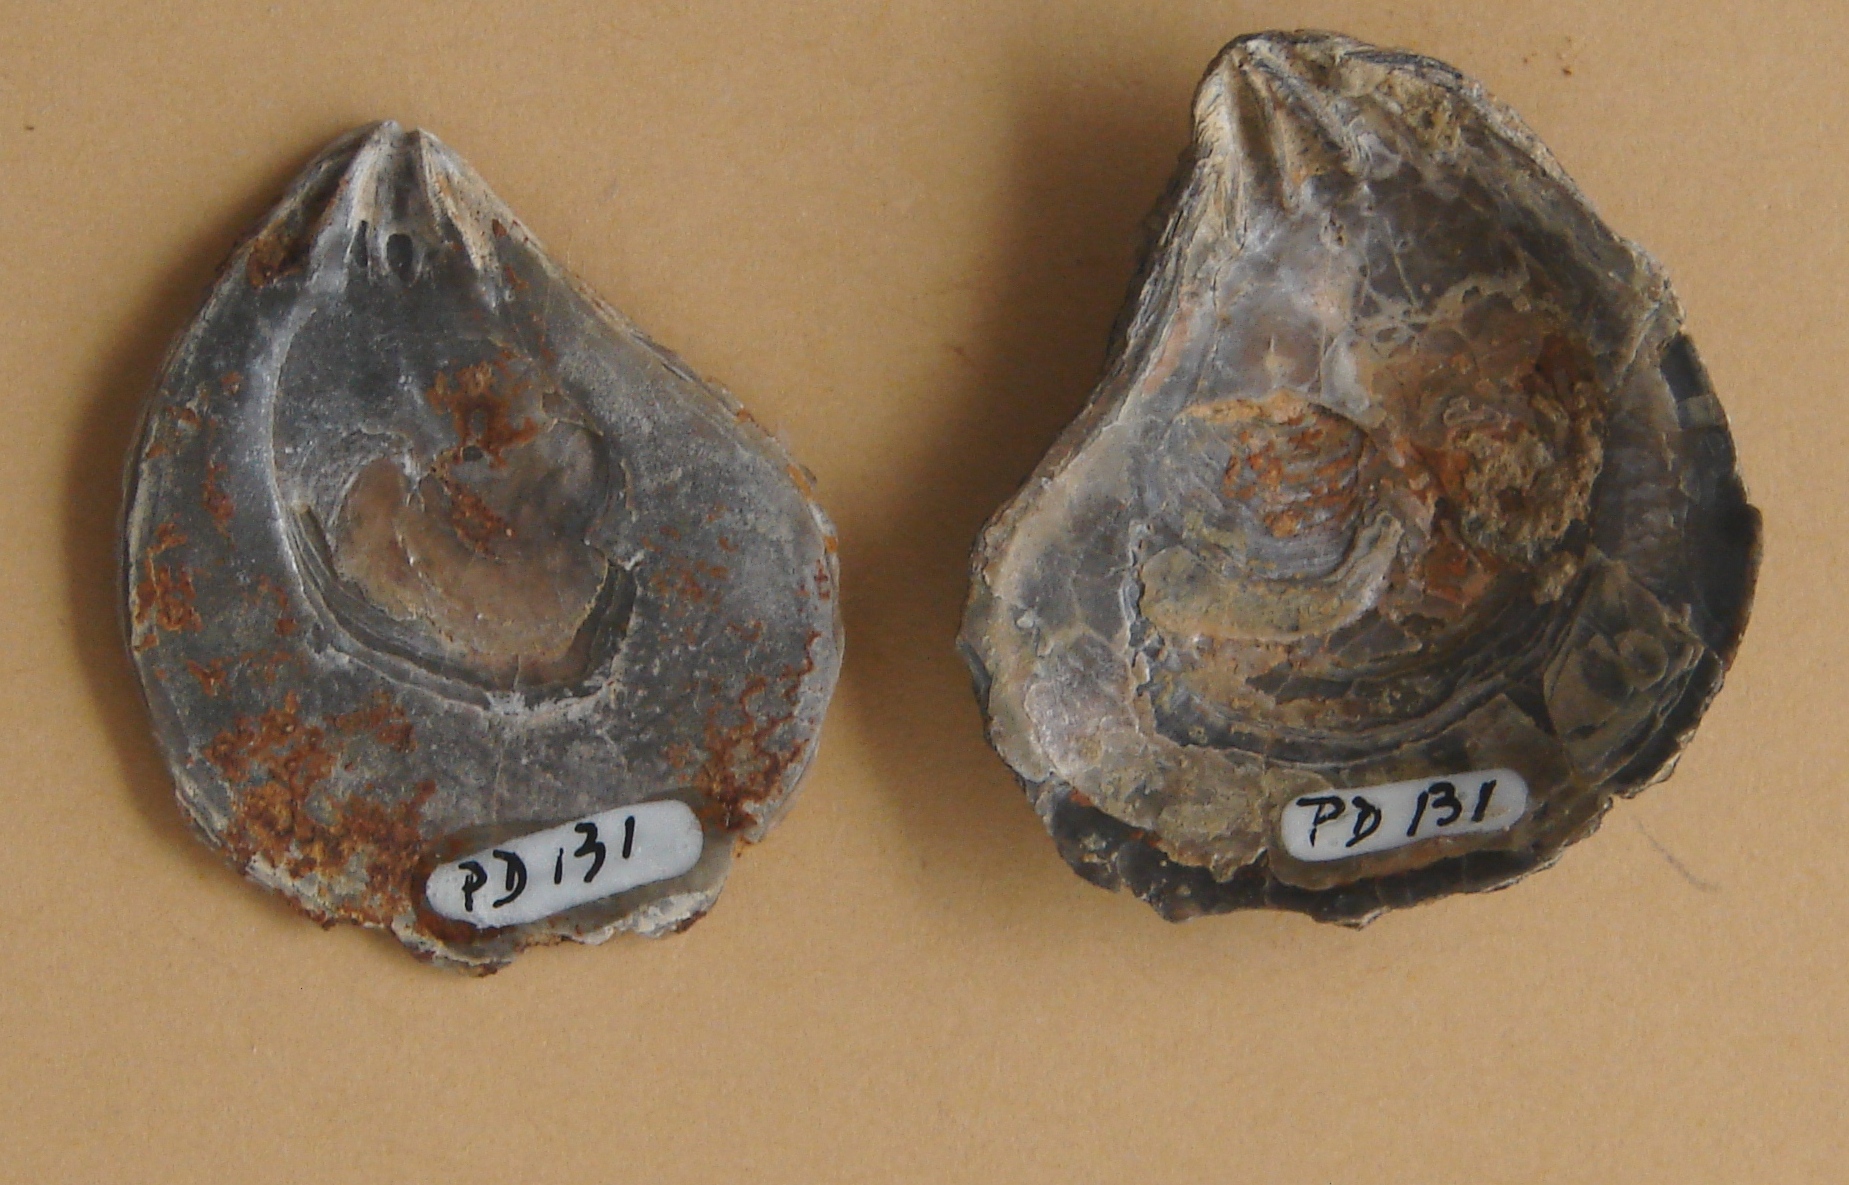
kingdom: Animalia
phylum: Mollusca
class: Bivalvia
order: Myalinida
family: Inoceramidae
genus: Inoceramus
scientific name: Inoceramus
